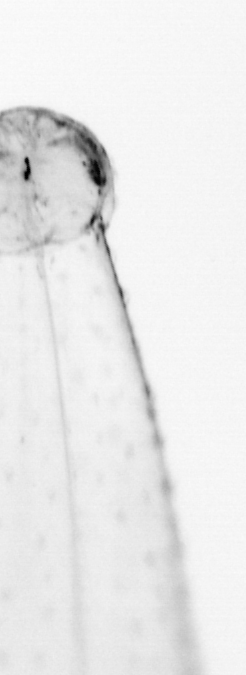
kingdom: Animalia
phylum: Chaetognatha
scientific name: Chaetognatha
